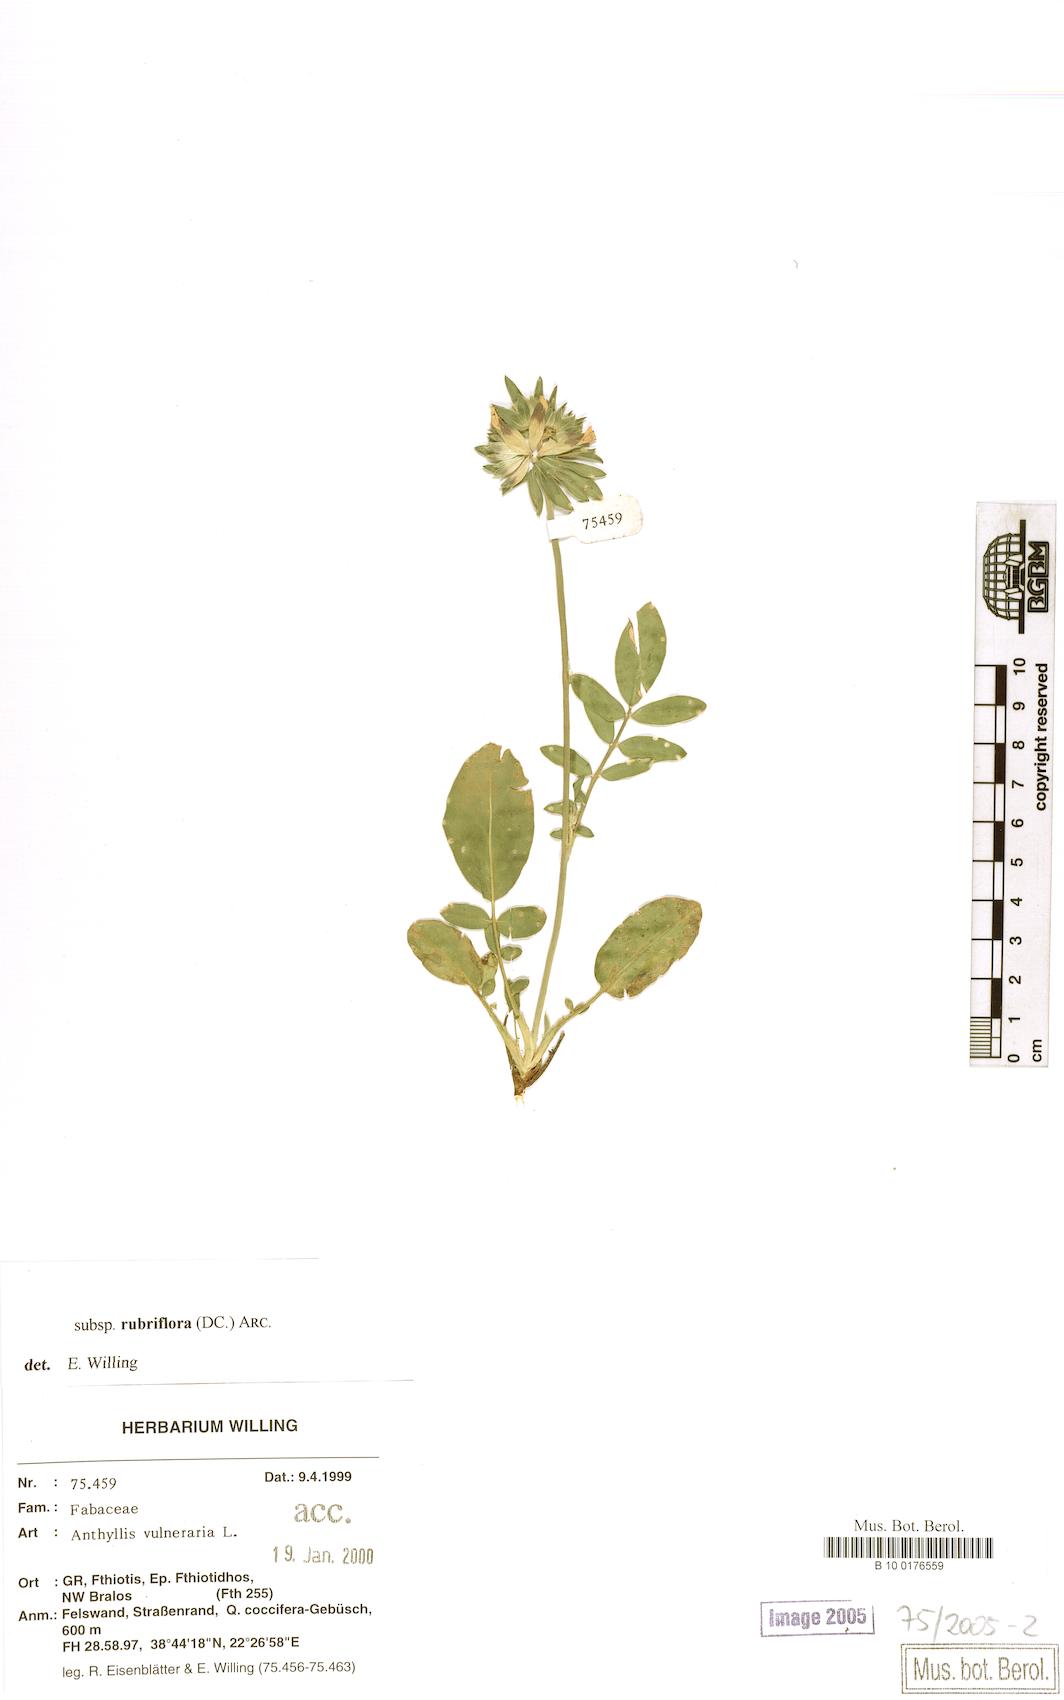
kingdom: Plantae
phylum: Tracheophyta
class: Magnoliopsida
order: Fabales
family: Fabaceae
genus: Anthyllis
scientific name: Anthyllis vulneraria
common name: Kidney vetch
